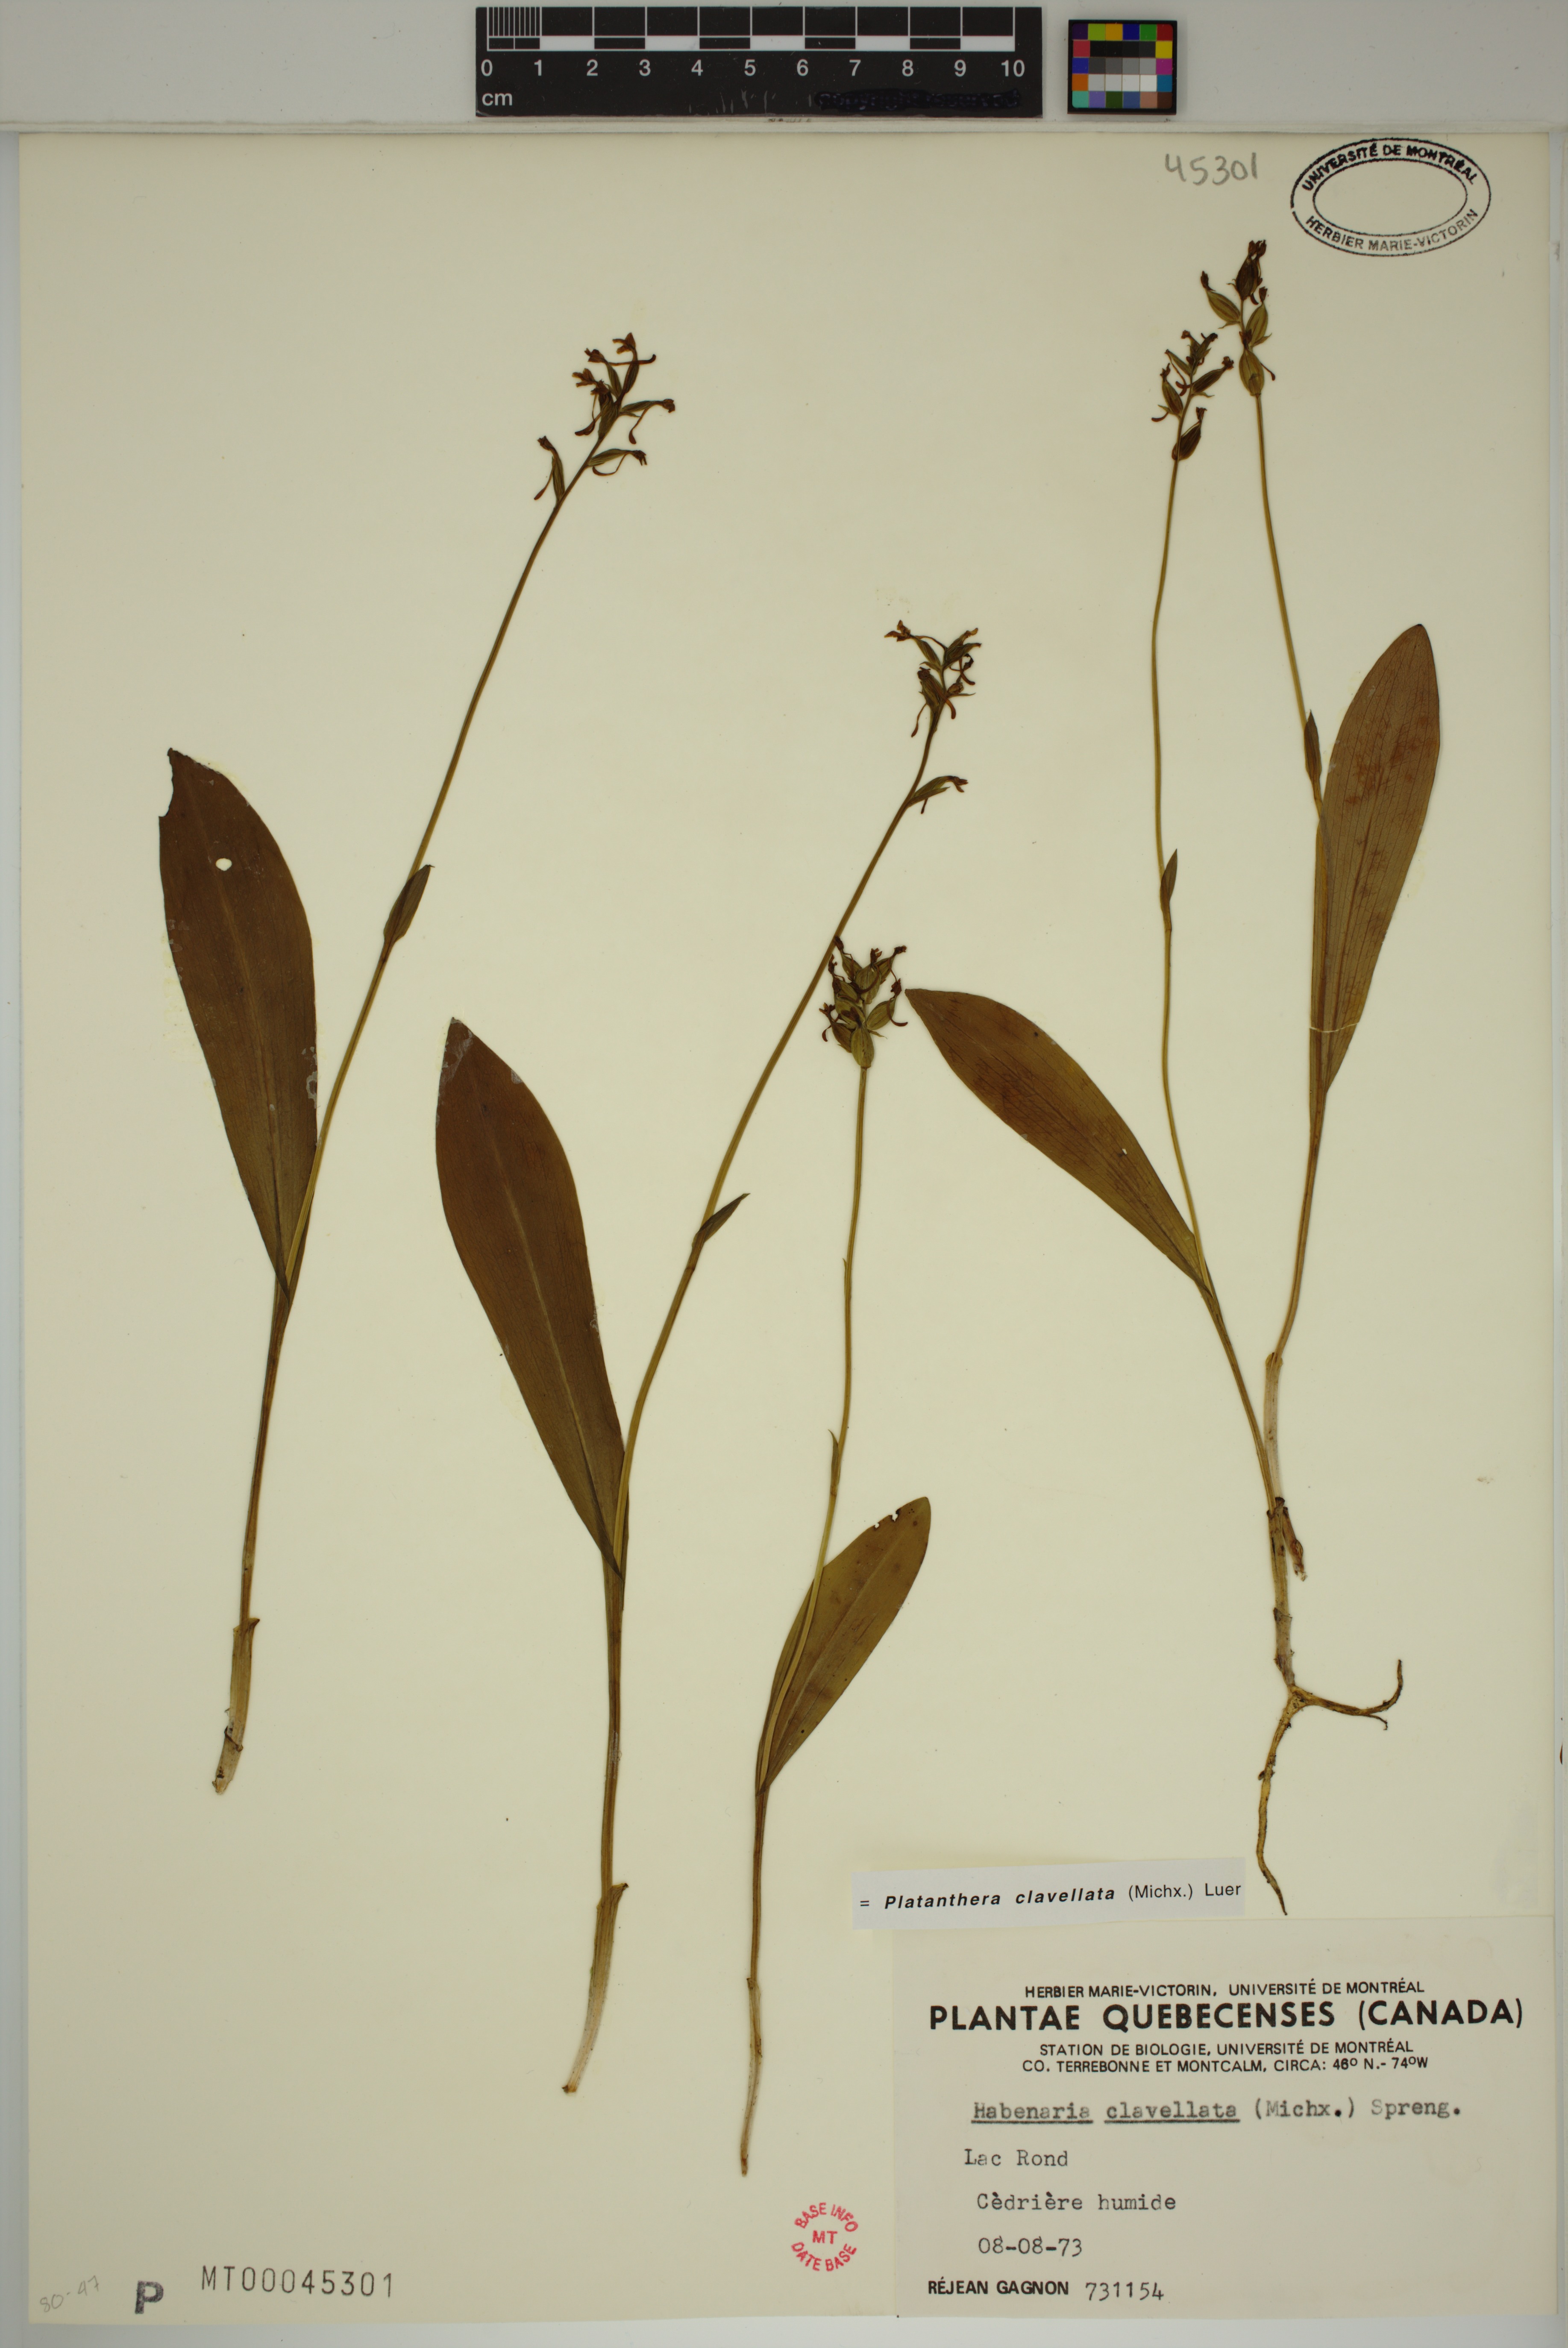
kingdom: Plantae
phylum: Tracheophyta
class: Liliopsida
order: Asparagales
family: Orchidaceae
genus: Platanthera
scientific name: Platanthera clavellata
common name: Club-spur orchid
